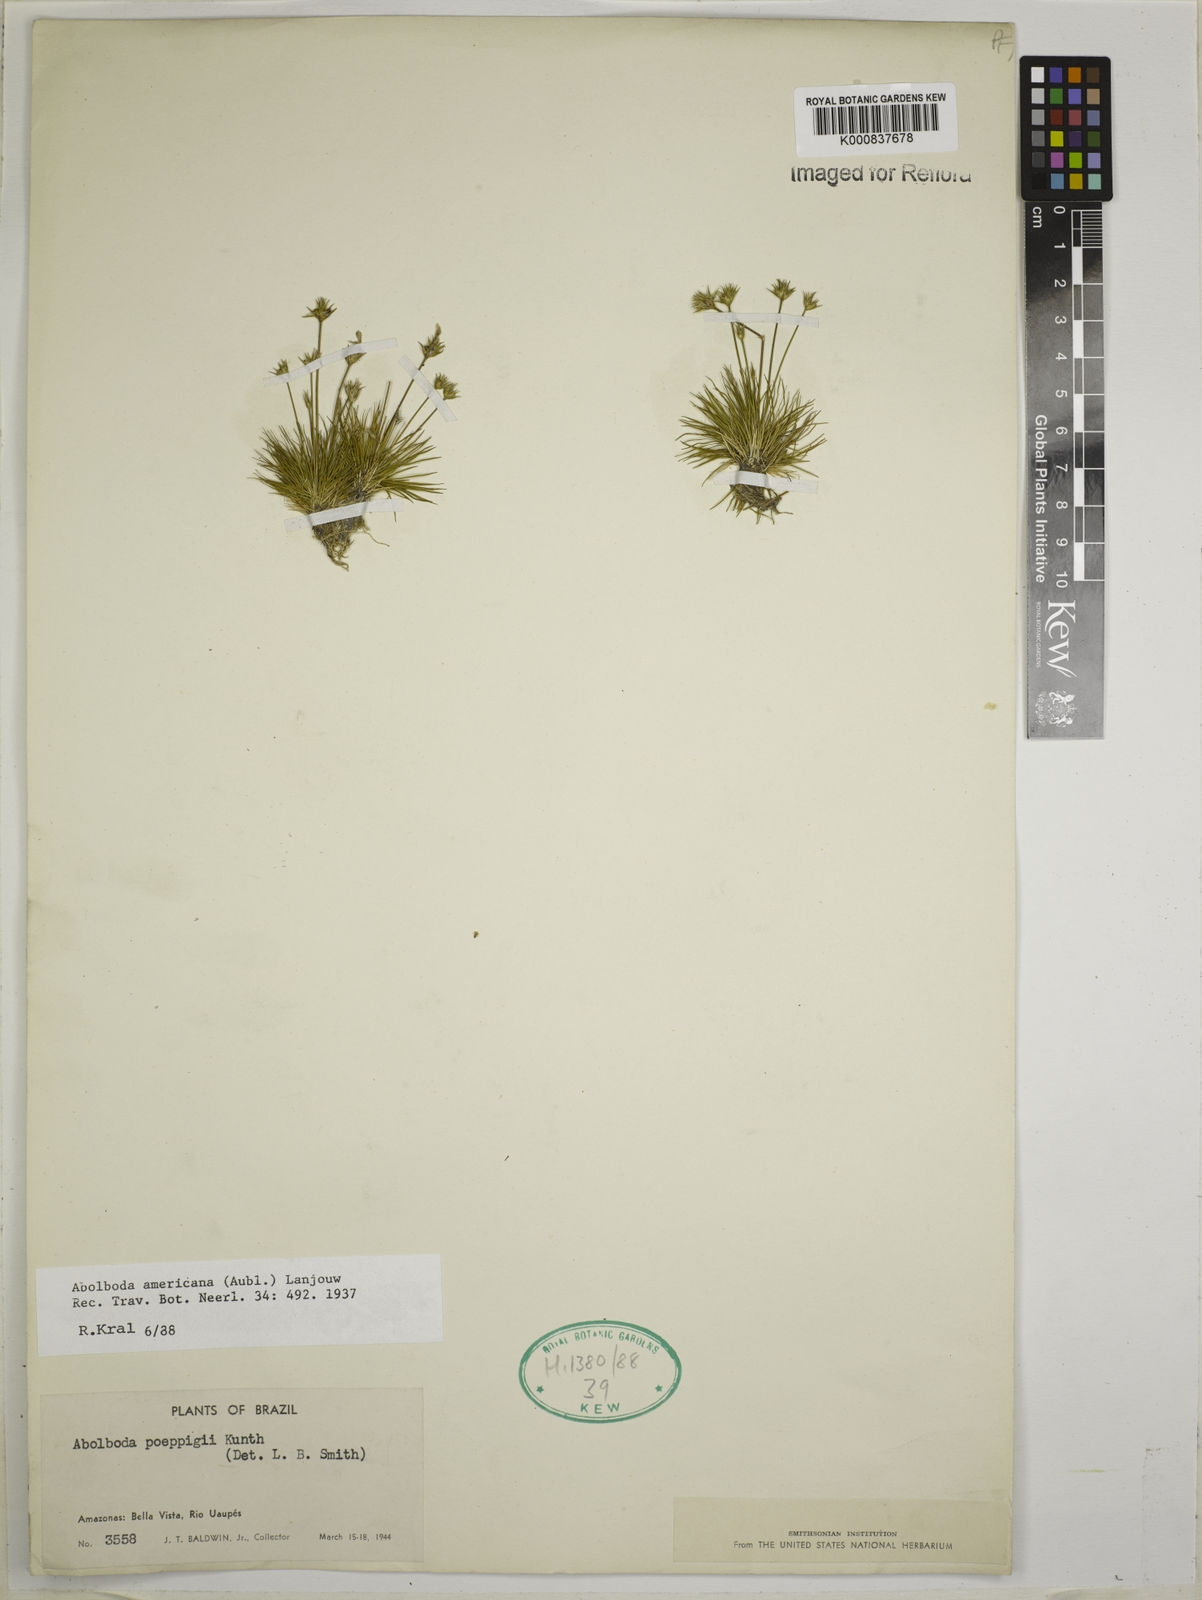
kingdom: Plantae
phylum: Tracheophyta
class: Liliopsida
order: Poales
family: Xyridaceae
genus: Abolboda
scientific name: Abolboda americana
